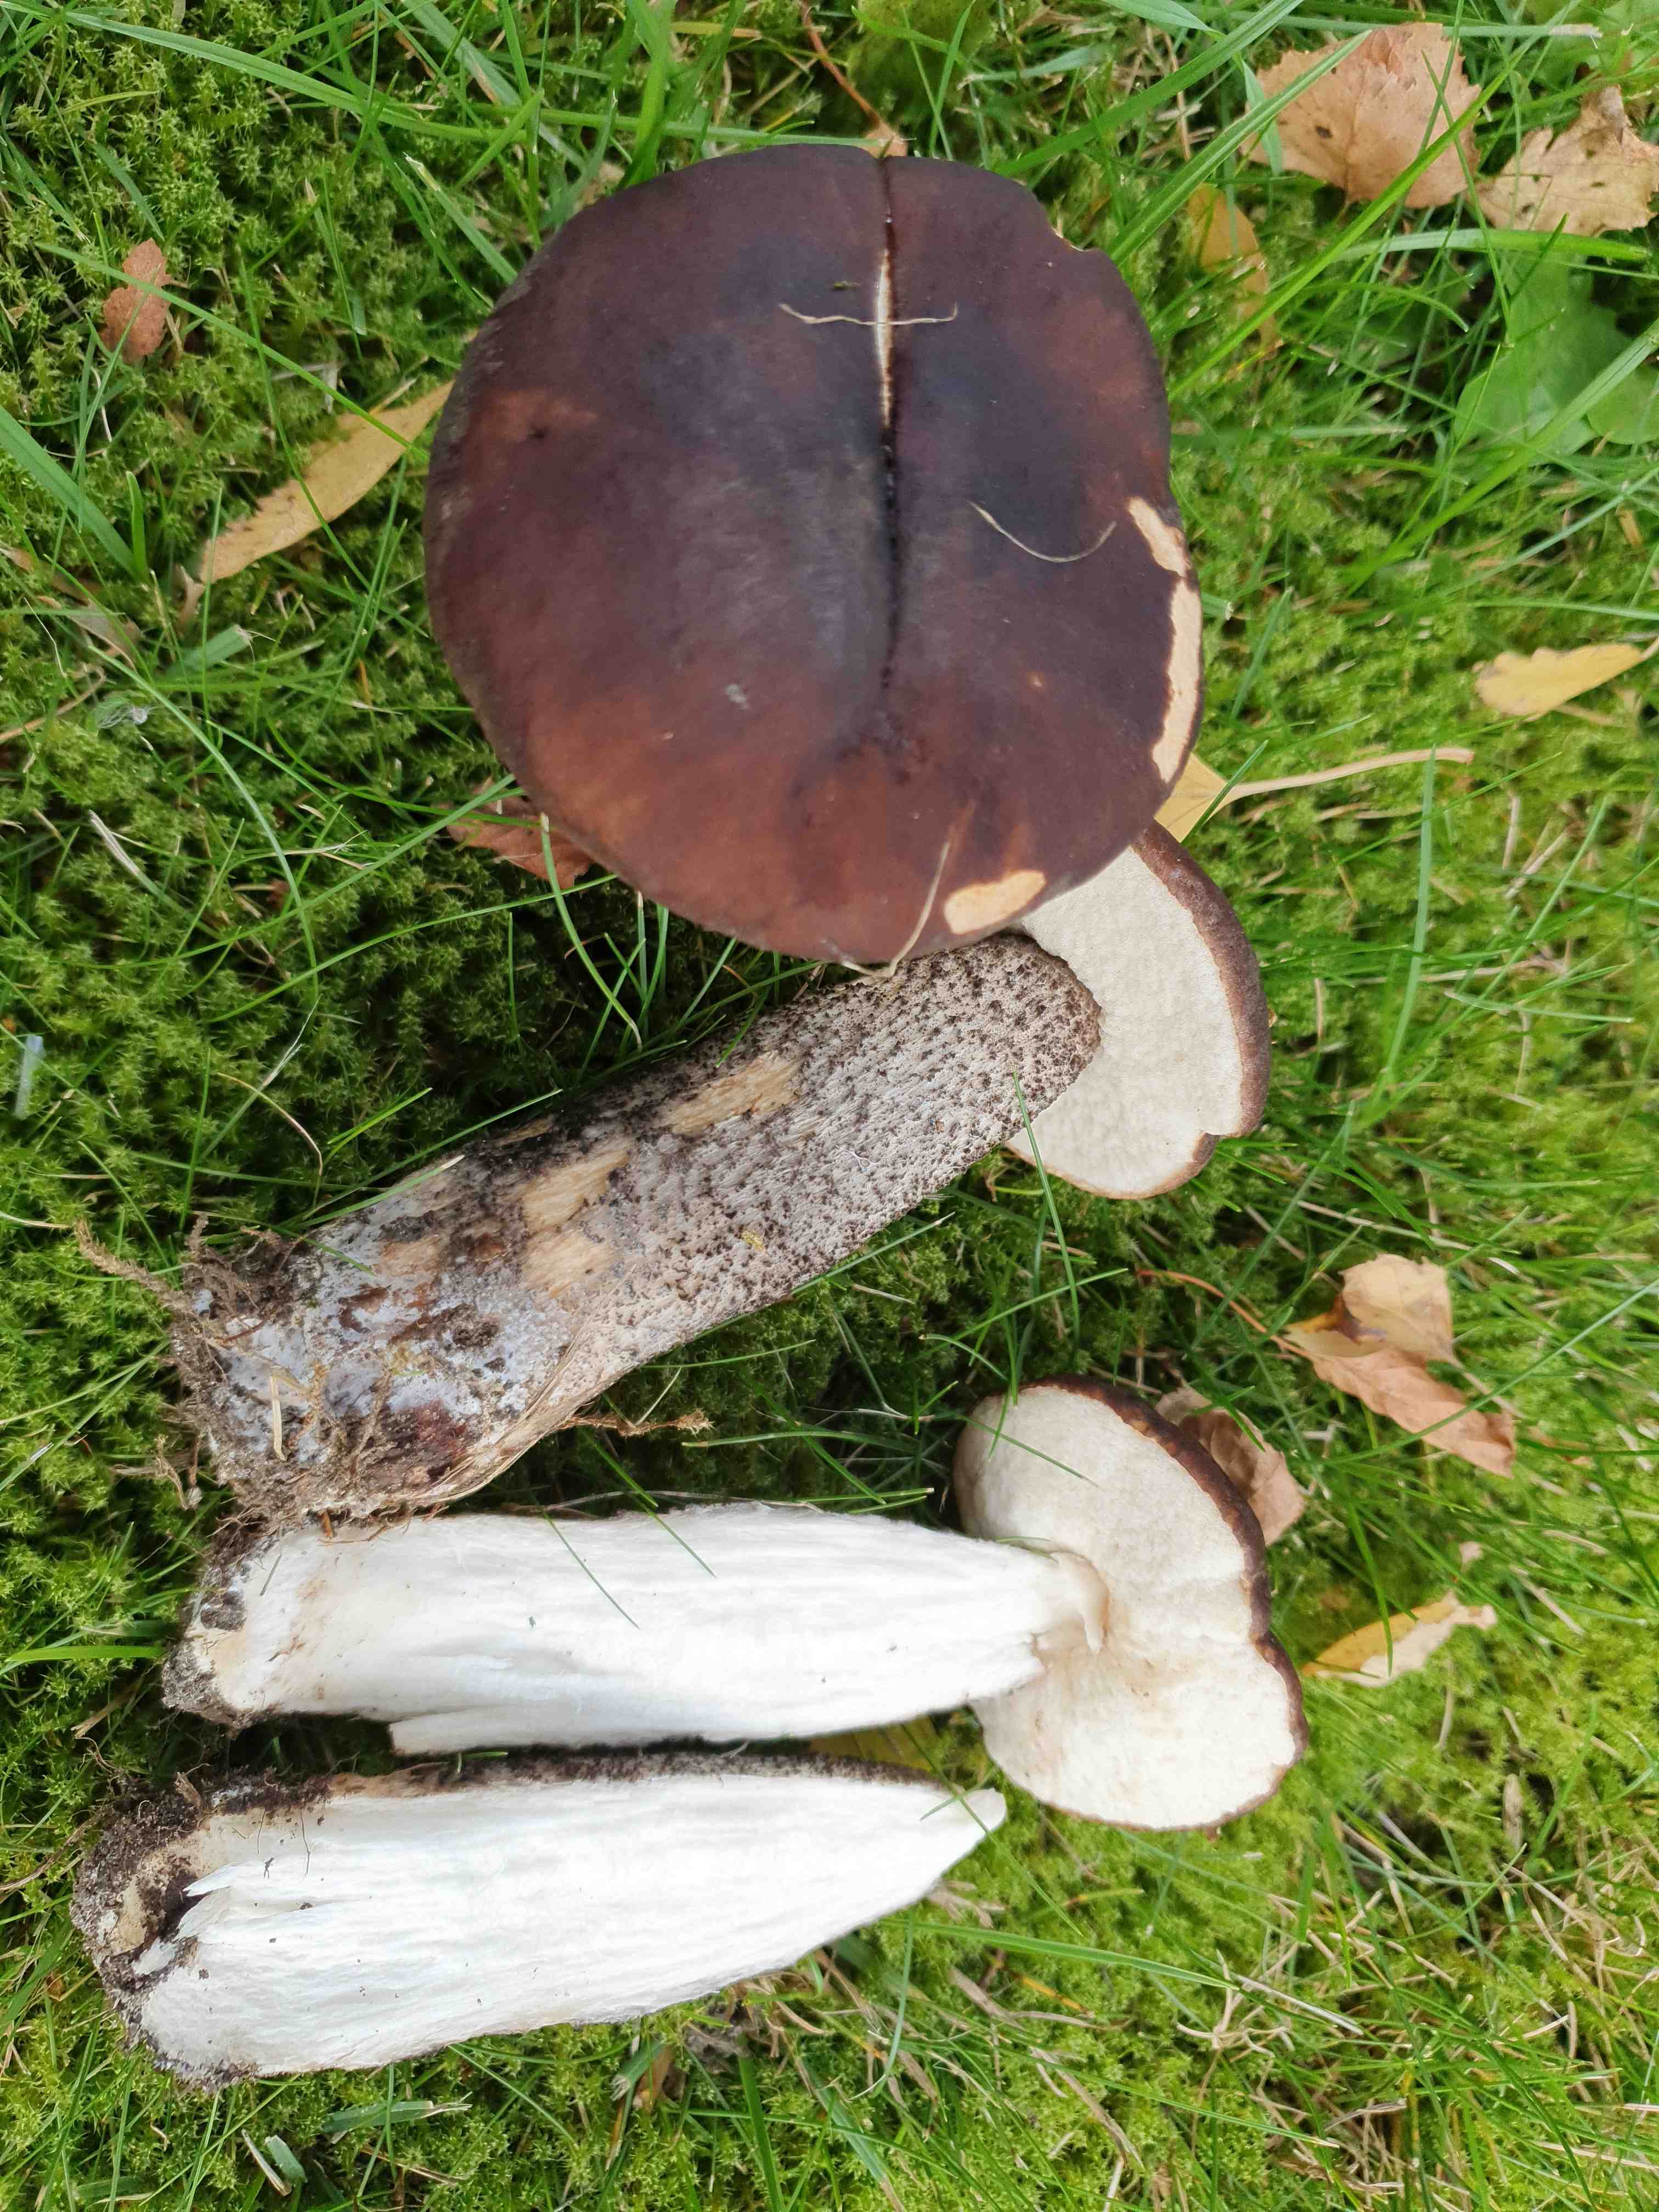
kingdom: Fungi
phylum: Basidiomycota
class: Agaricomycetes
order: Boletales
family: Boletaceae
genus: Leccinum
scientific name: Leccinum scabrum
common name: brun skælrørhat
